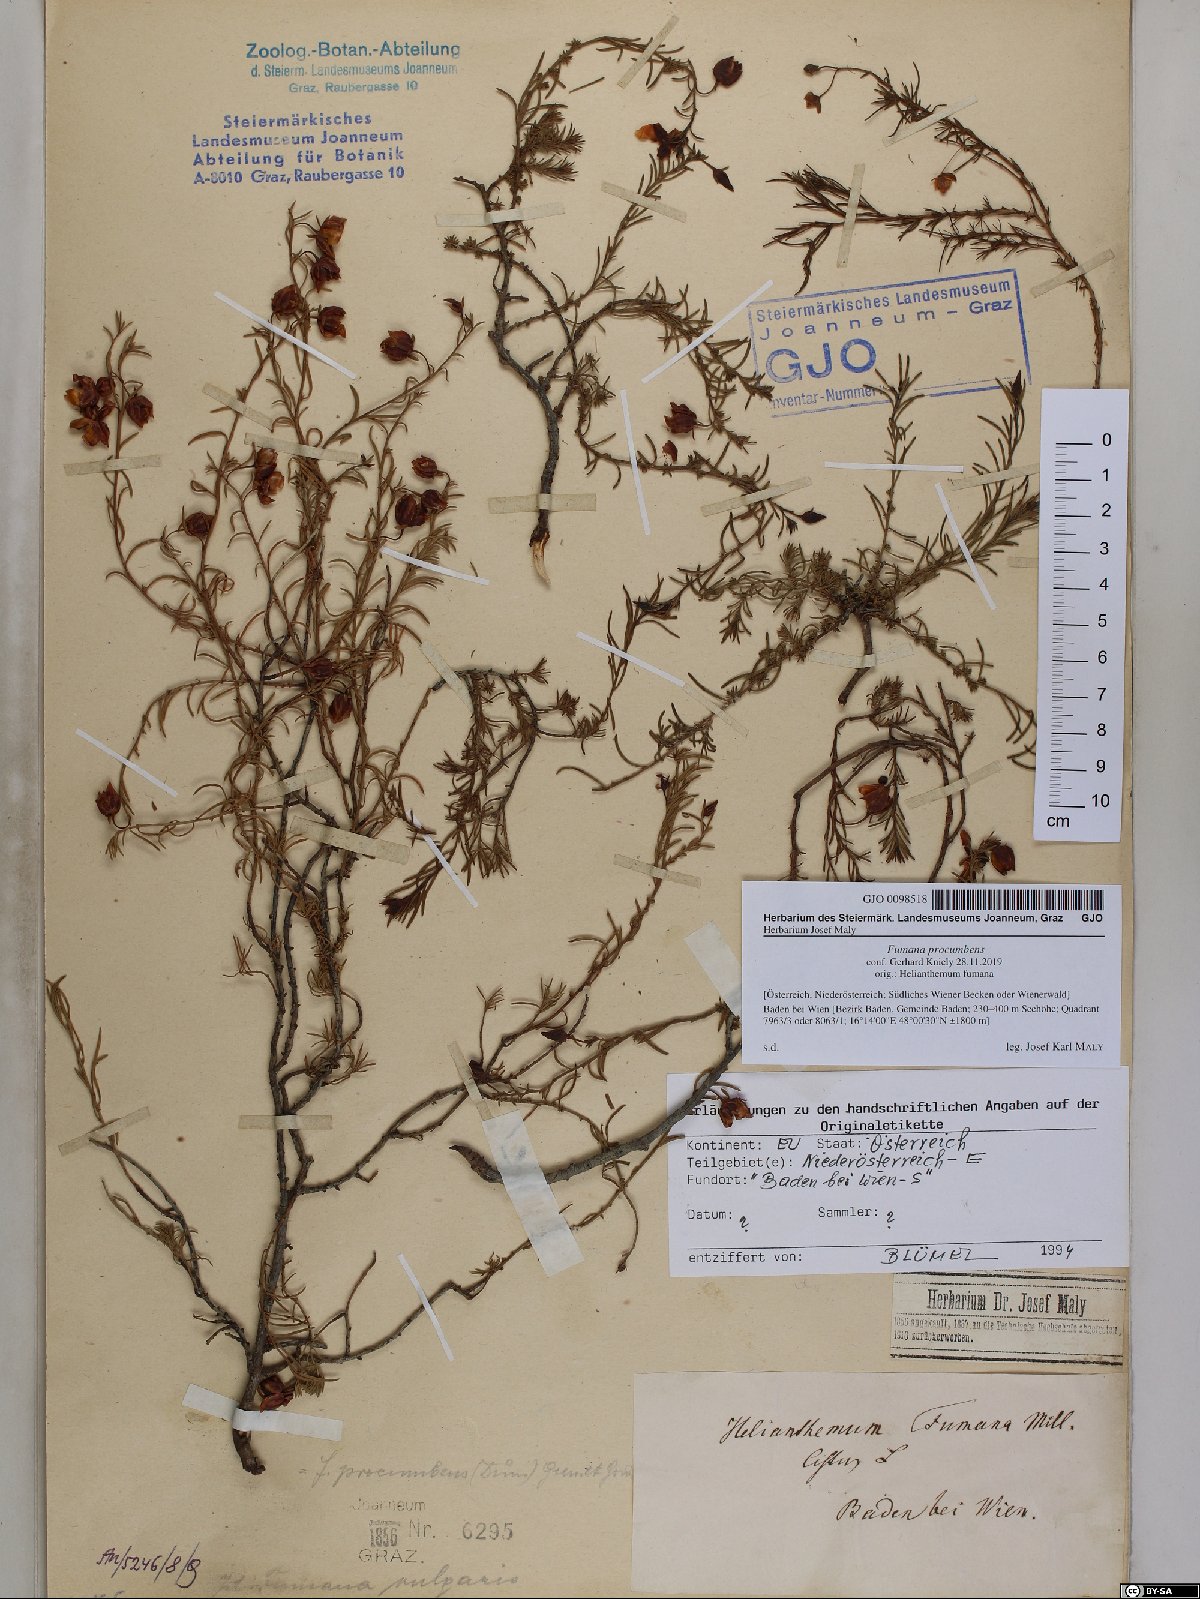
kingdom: Plantae
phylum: Tracheophyta
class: Magnoliopsida
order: Malvales
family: Cistaceae
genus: Fumana
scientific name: Fumana procumbens
